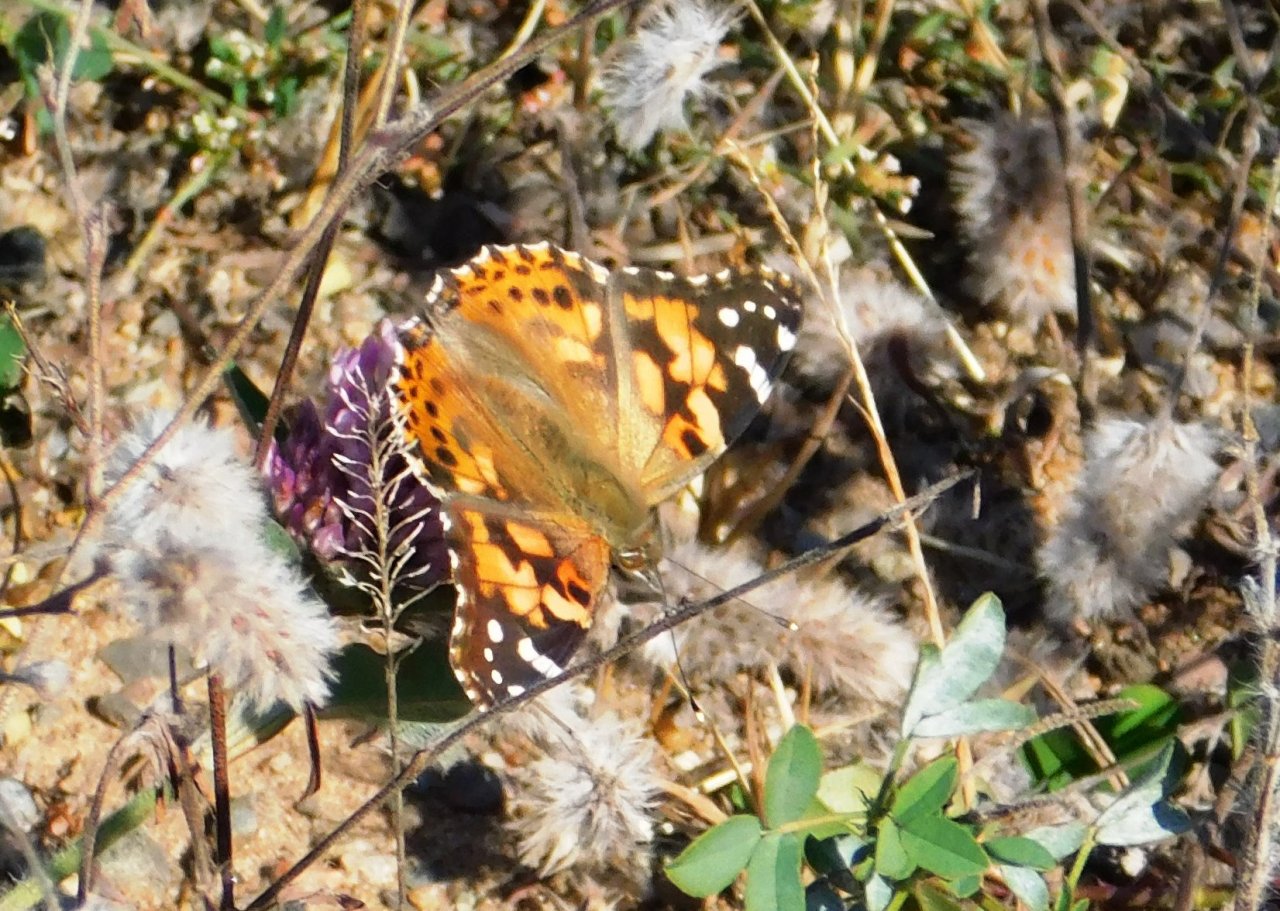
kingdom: Animalia
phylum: Arthropoda
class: Insecta
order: Lepidoptera
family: Nymphalidae
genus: Vanessa
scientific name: Vanessa cardui
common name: Painted Lady
